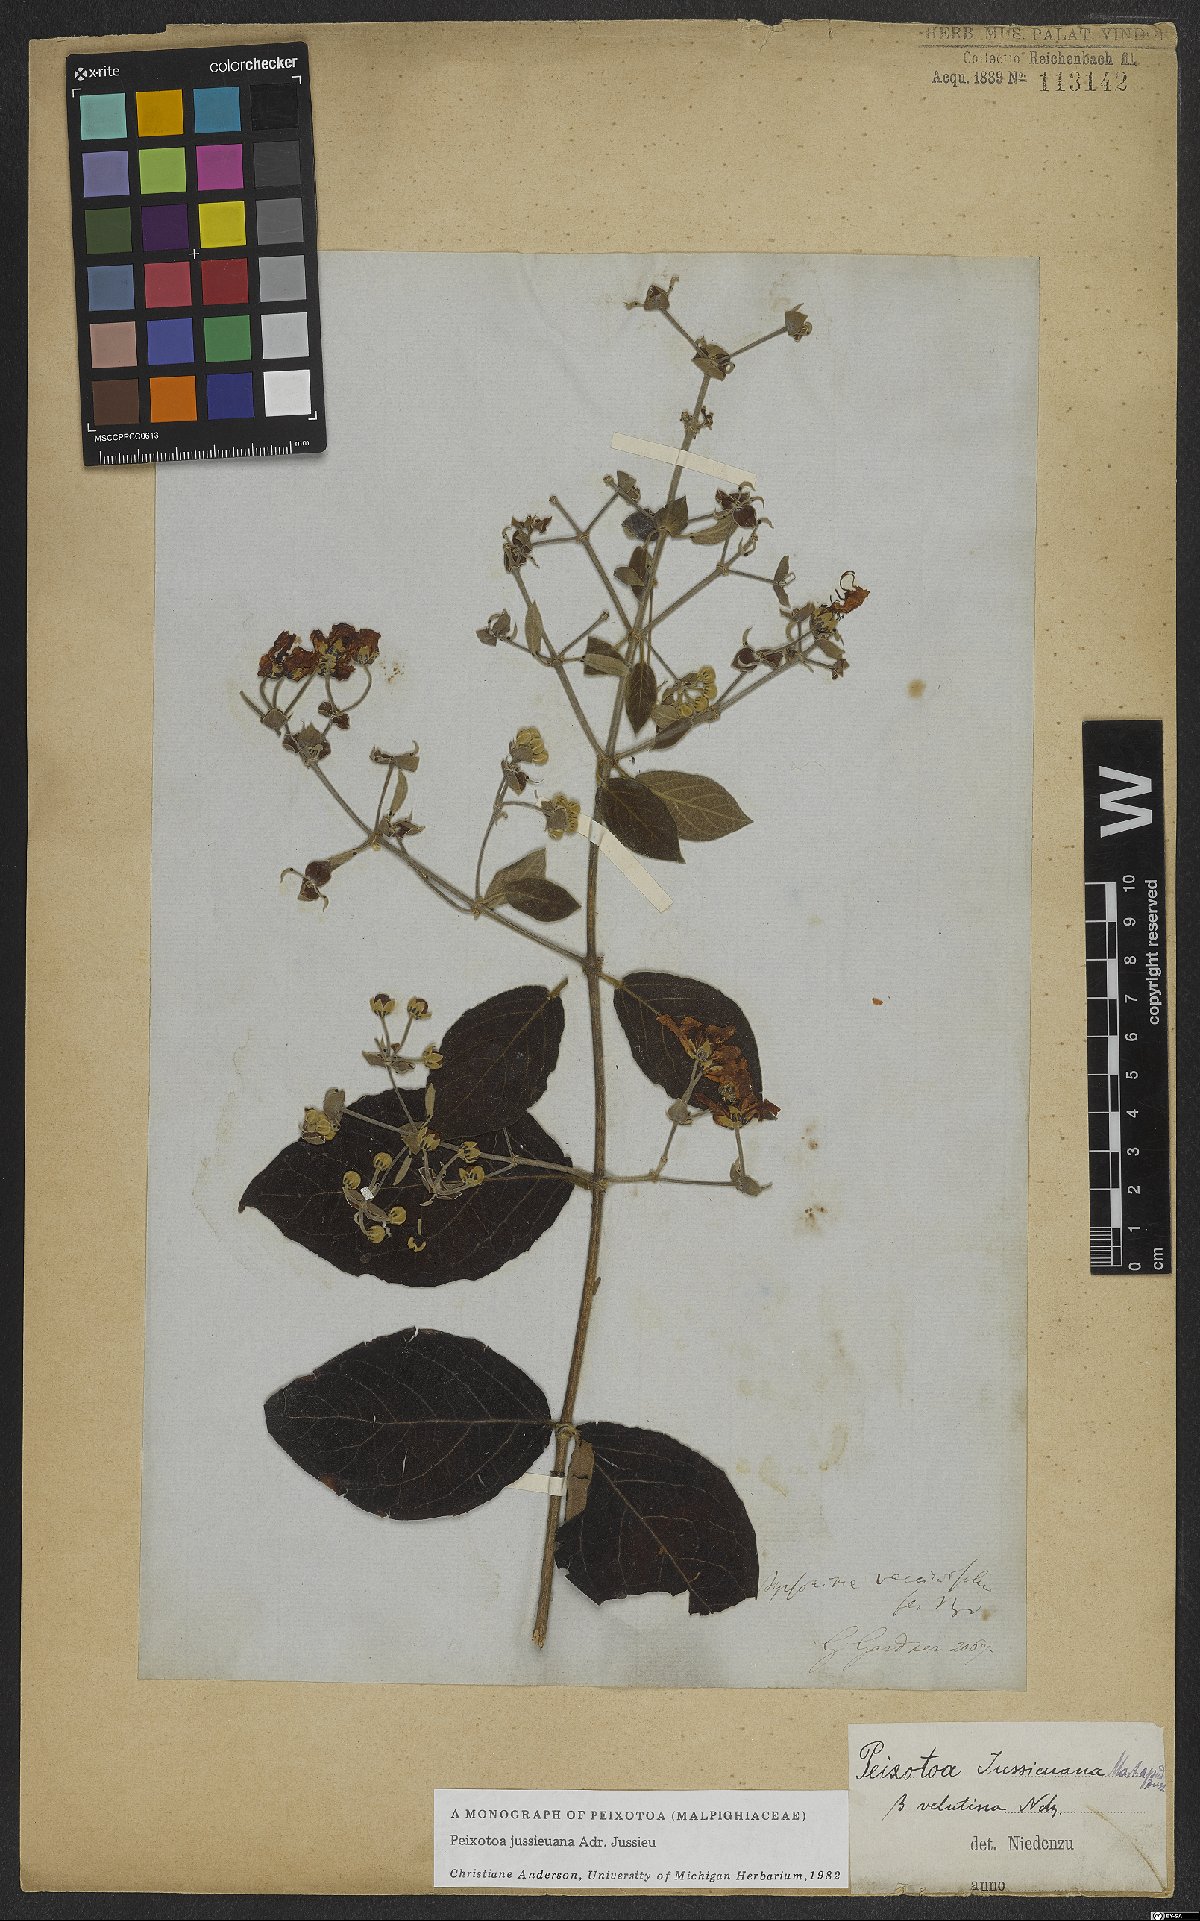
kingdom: Plantae
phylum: Tracheophyta
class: Magnoliopsida
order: Malpighiales
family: Malpighiaceae
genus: Peixotoa
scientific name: Peixotoa jussieuana
